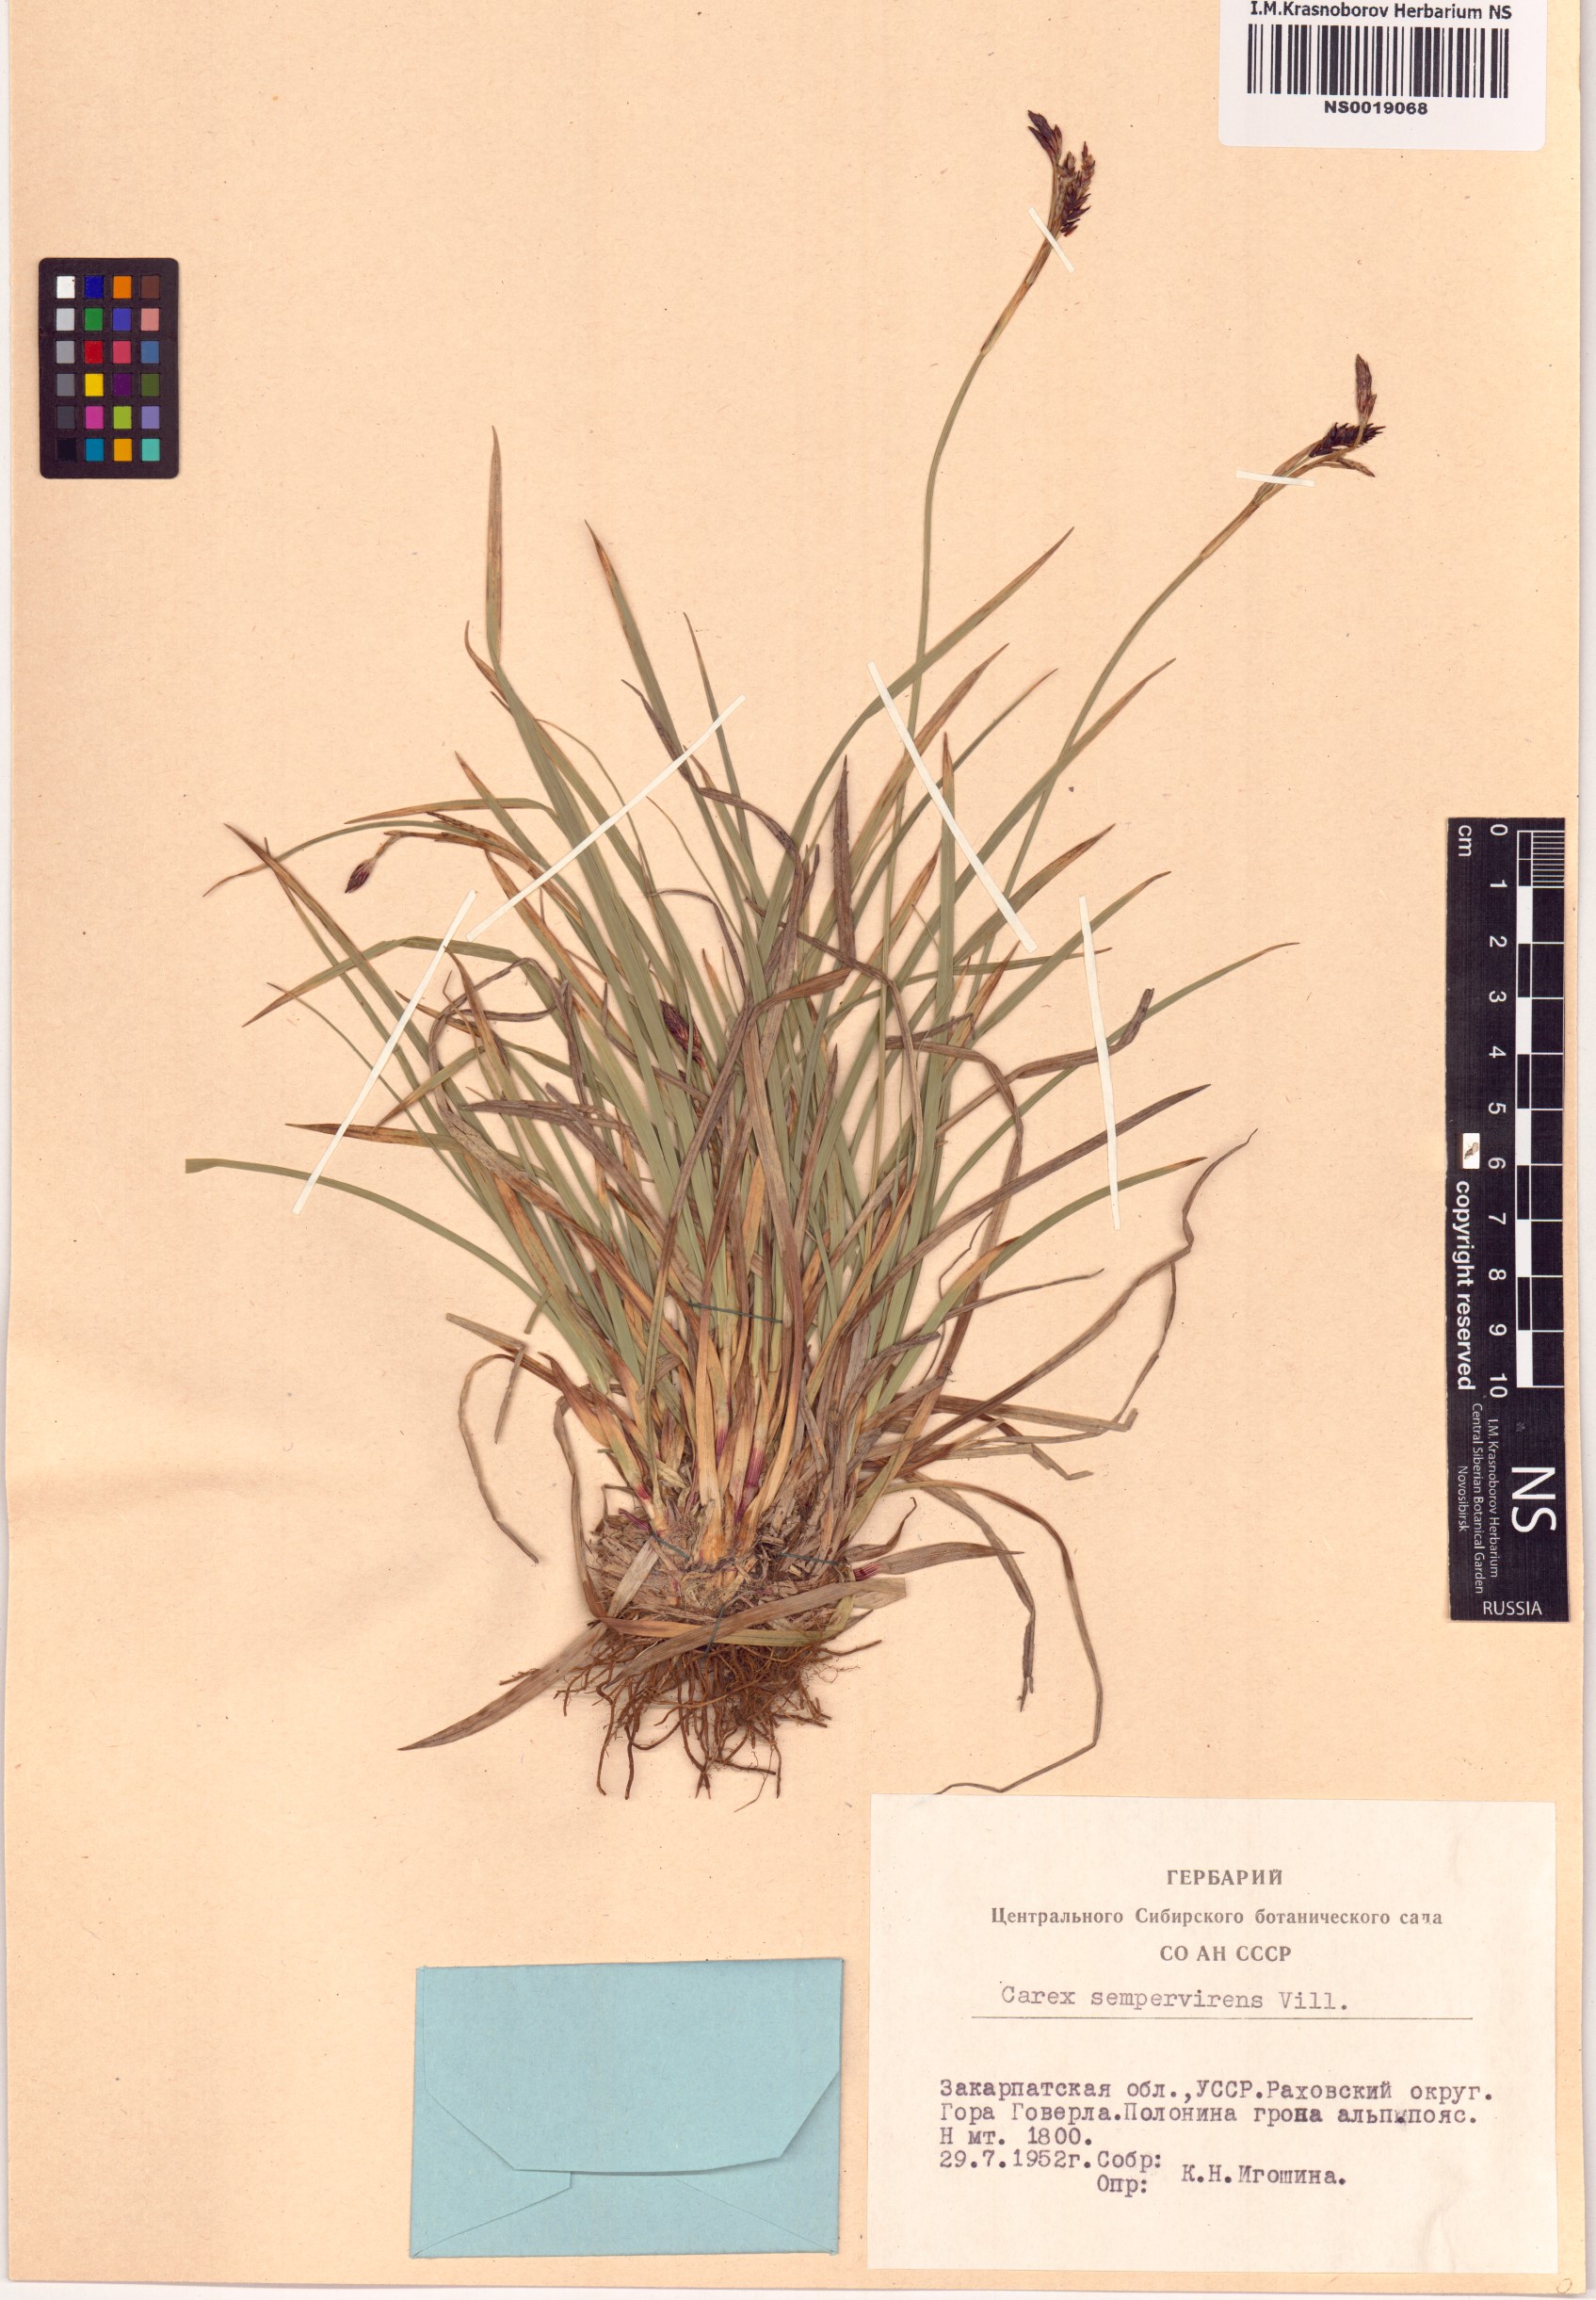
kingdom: Plantae
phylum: Tracheophyta
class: Liliopsida
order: Poales
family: Cyperaceae
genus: Carex
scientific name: Carex sempervirens
